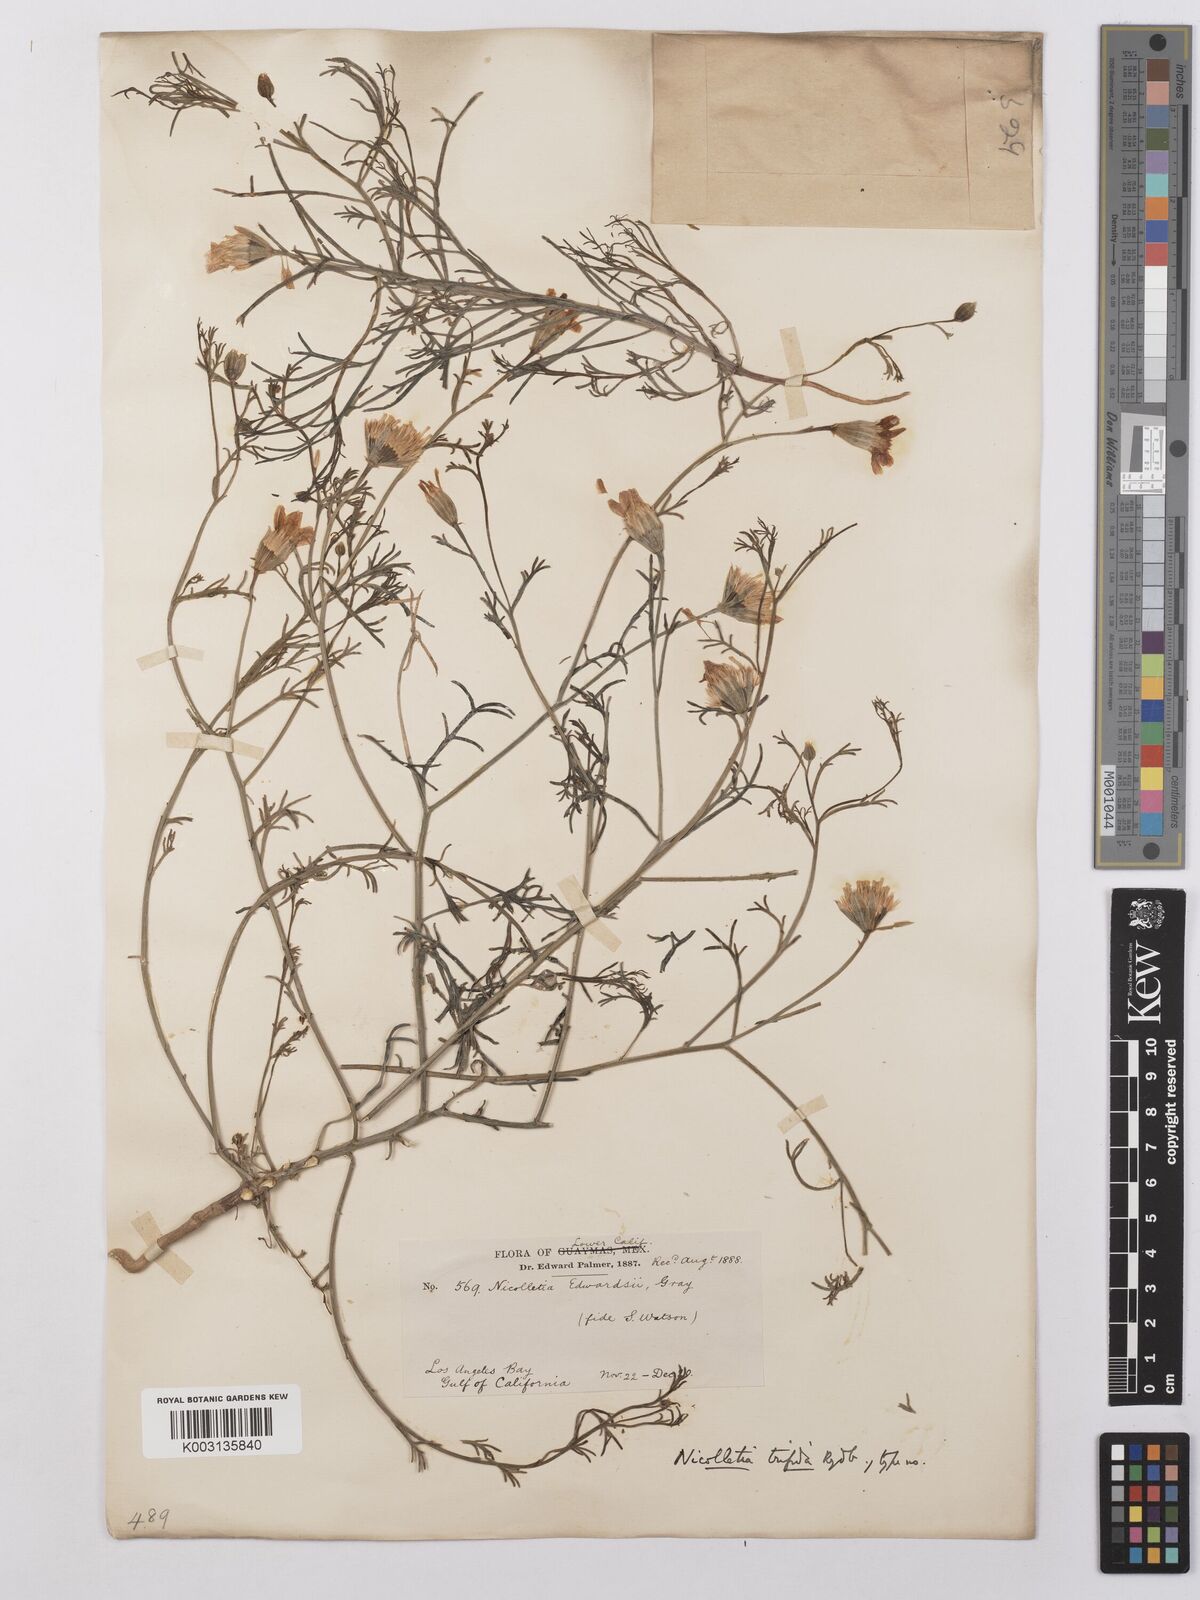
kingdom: Plantae
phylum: Tracheophyta
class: Magnoliopsida
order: Asterales
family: Asteraceae
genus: Nicolletia
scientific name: Nicolletia trifida
